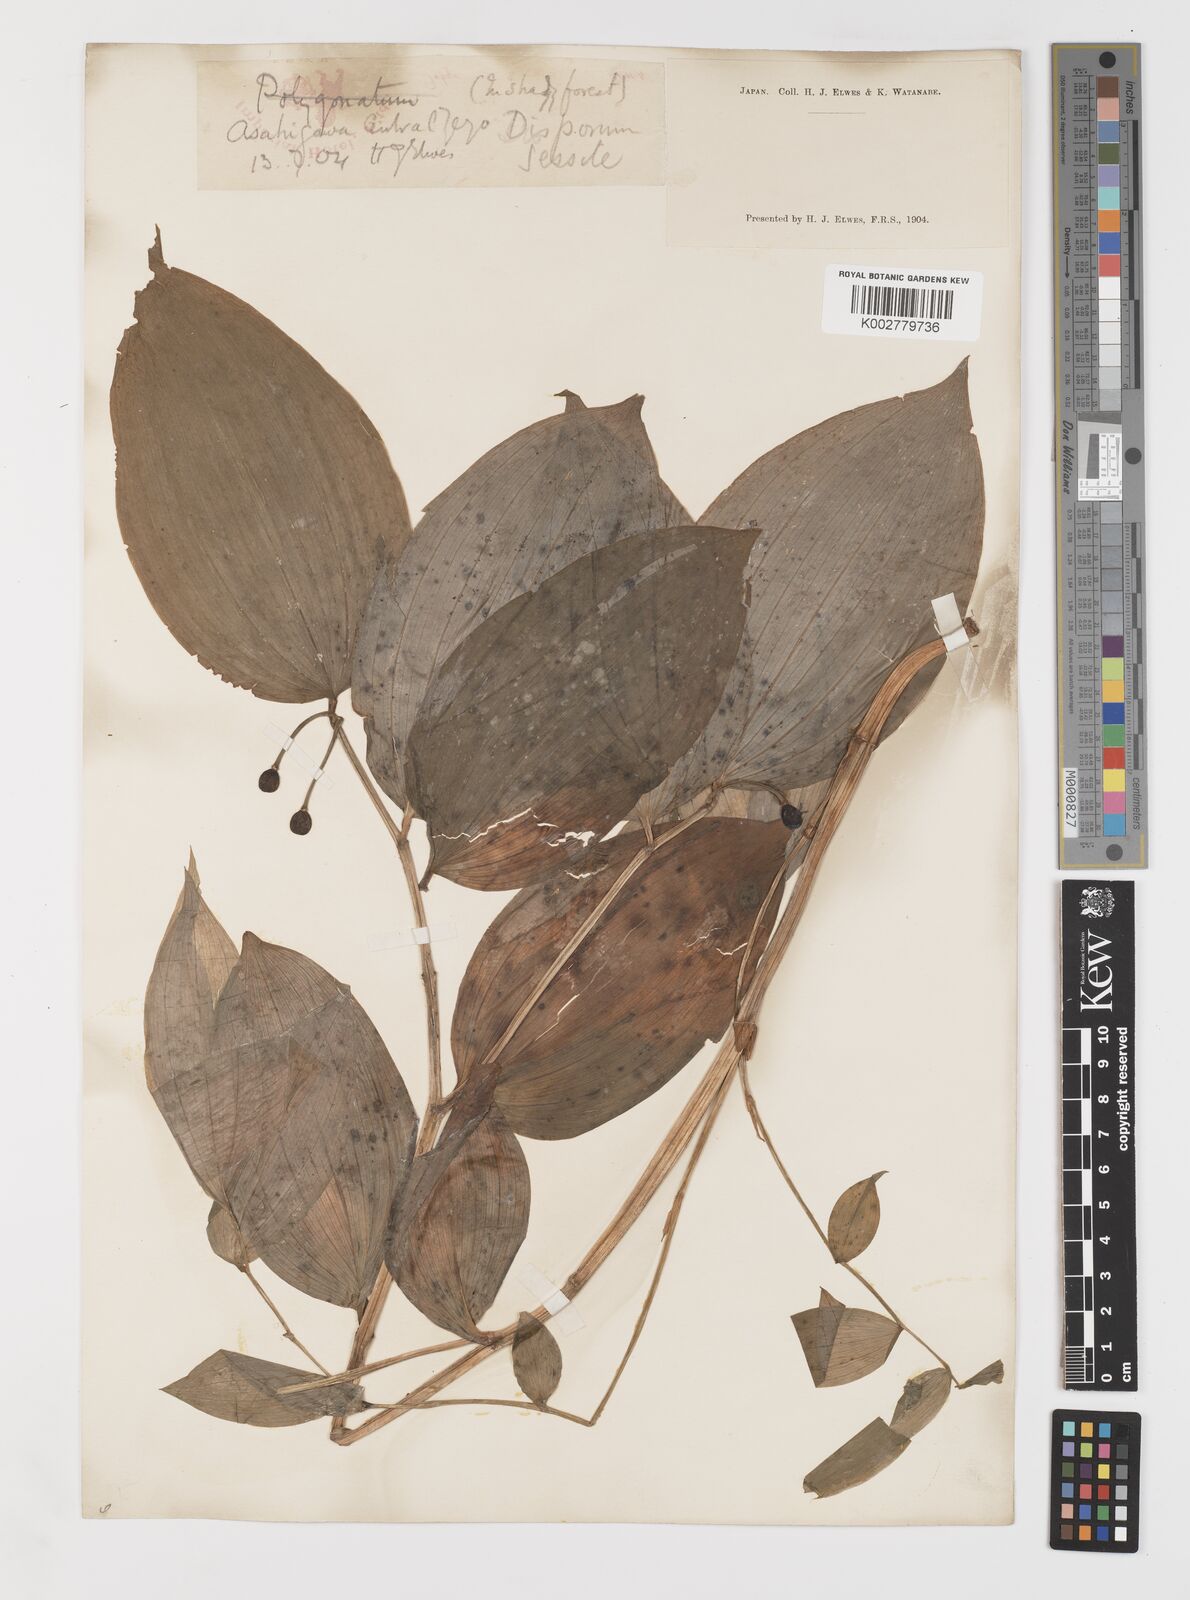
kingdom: Plantae
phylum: Tracheophyta
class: Liliopsida
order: Liliales
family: Colchicaceae
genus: Disporum
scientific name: Disporum sessile
